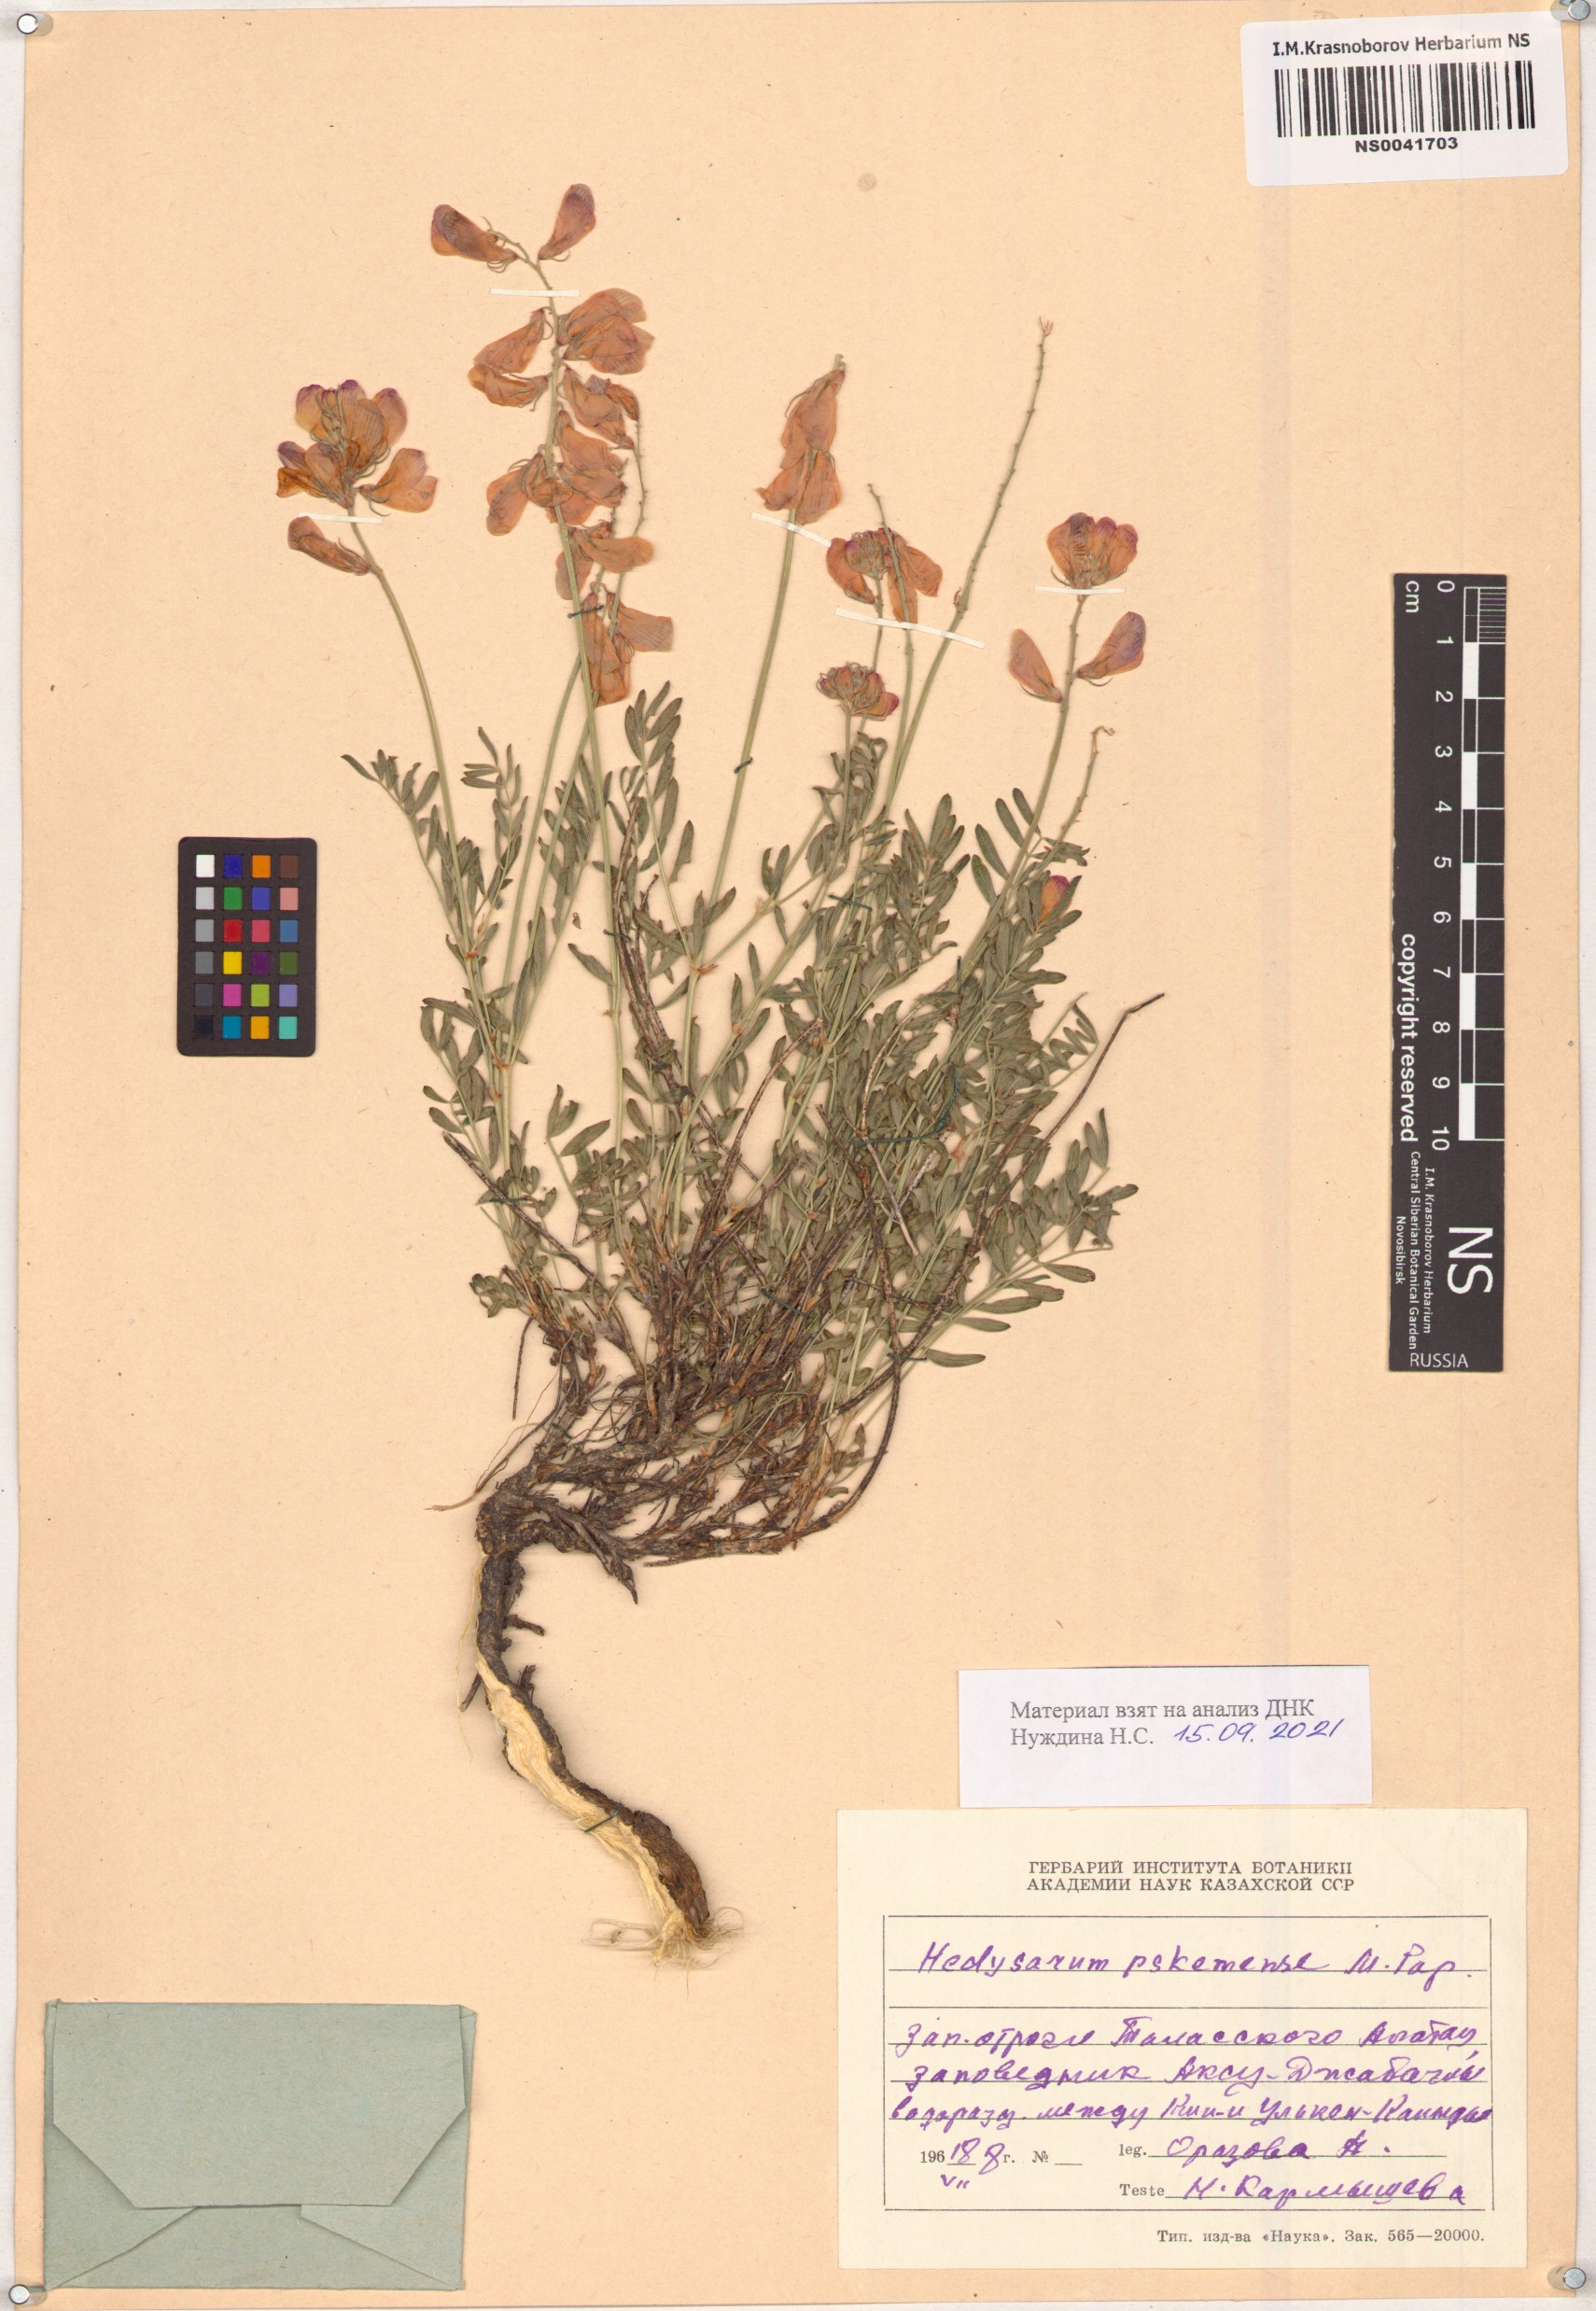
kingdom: Plantae
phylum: Tracheophyta
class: Magnoliopsida
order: Fabales
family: Fabaceae
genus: Hedysarum
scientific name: Hedysarum pskemense
